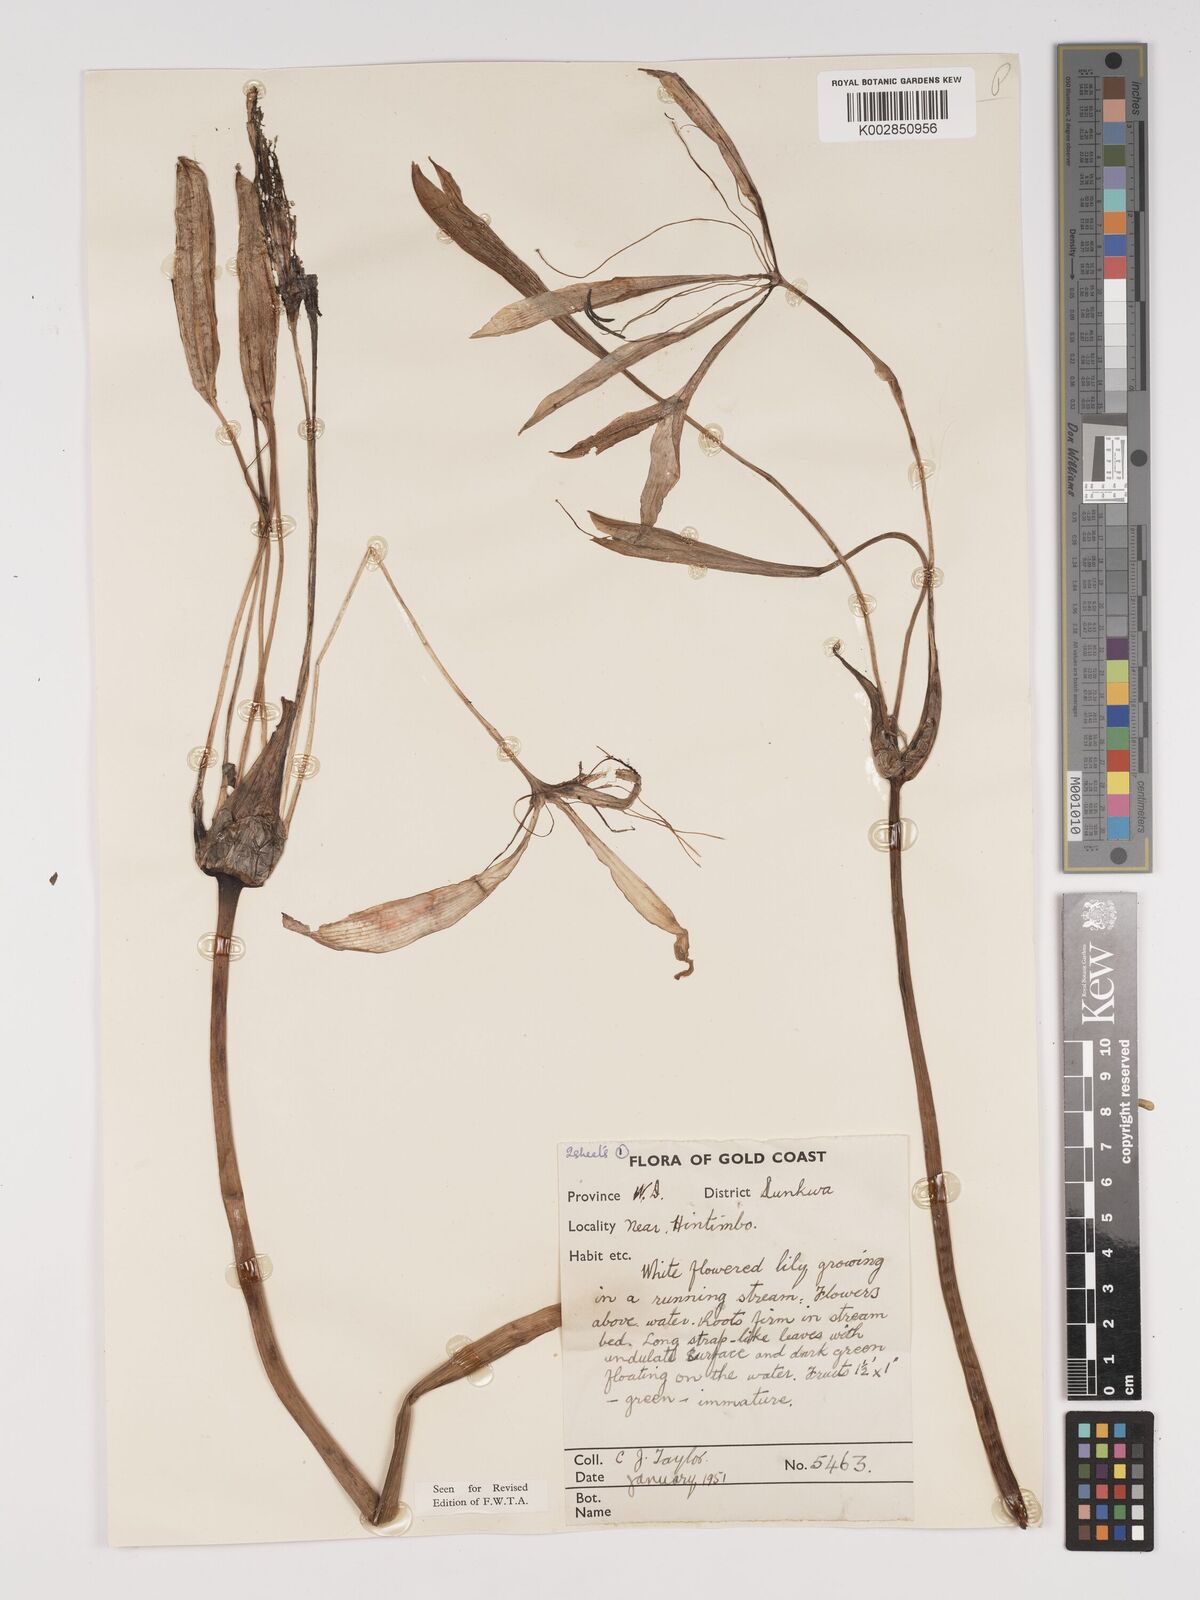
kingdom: Plantae
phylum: Tracheophyta
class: Liliopsida
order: Asparagales
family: Amaryllidaceae
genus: Crinum
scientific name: Crinum moorei
